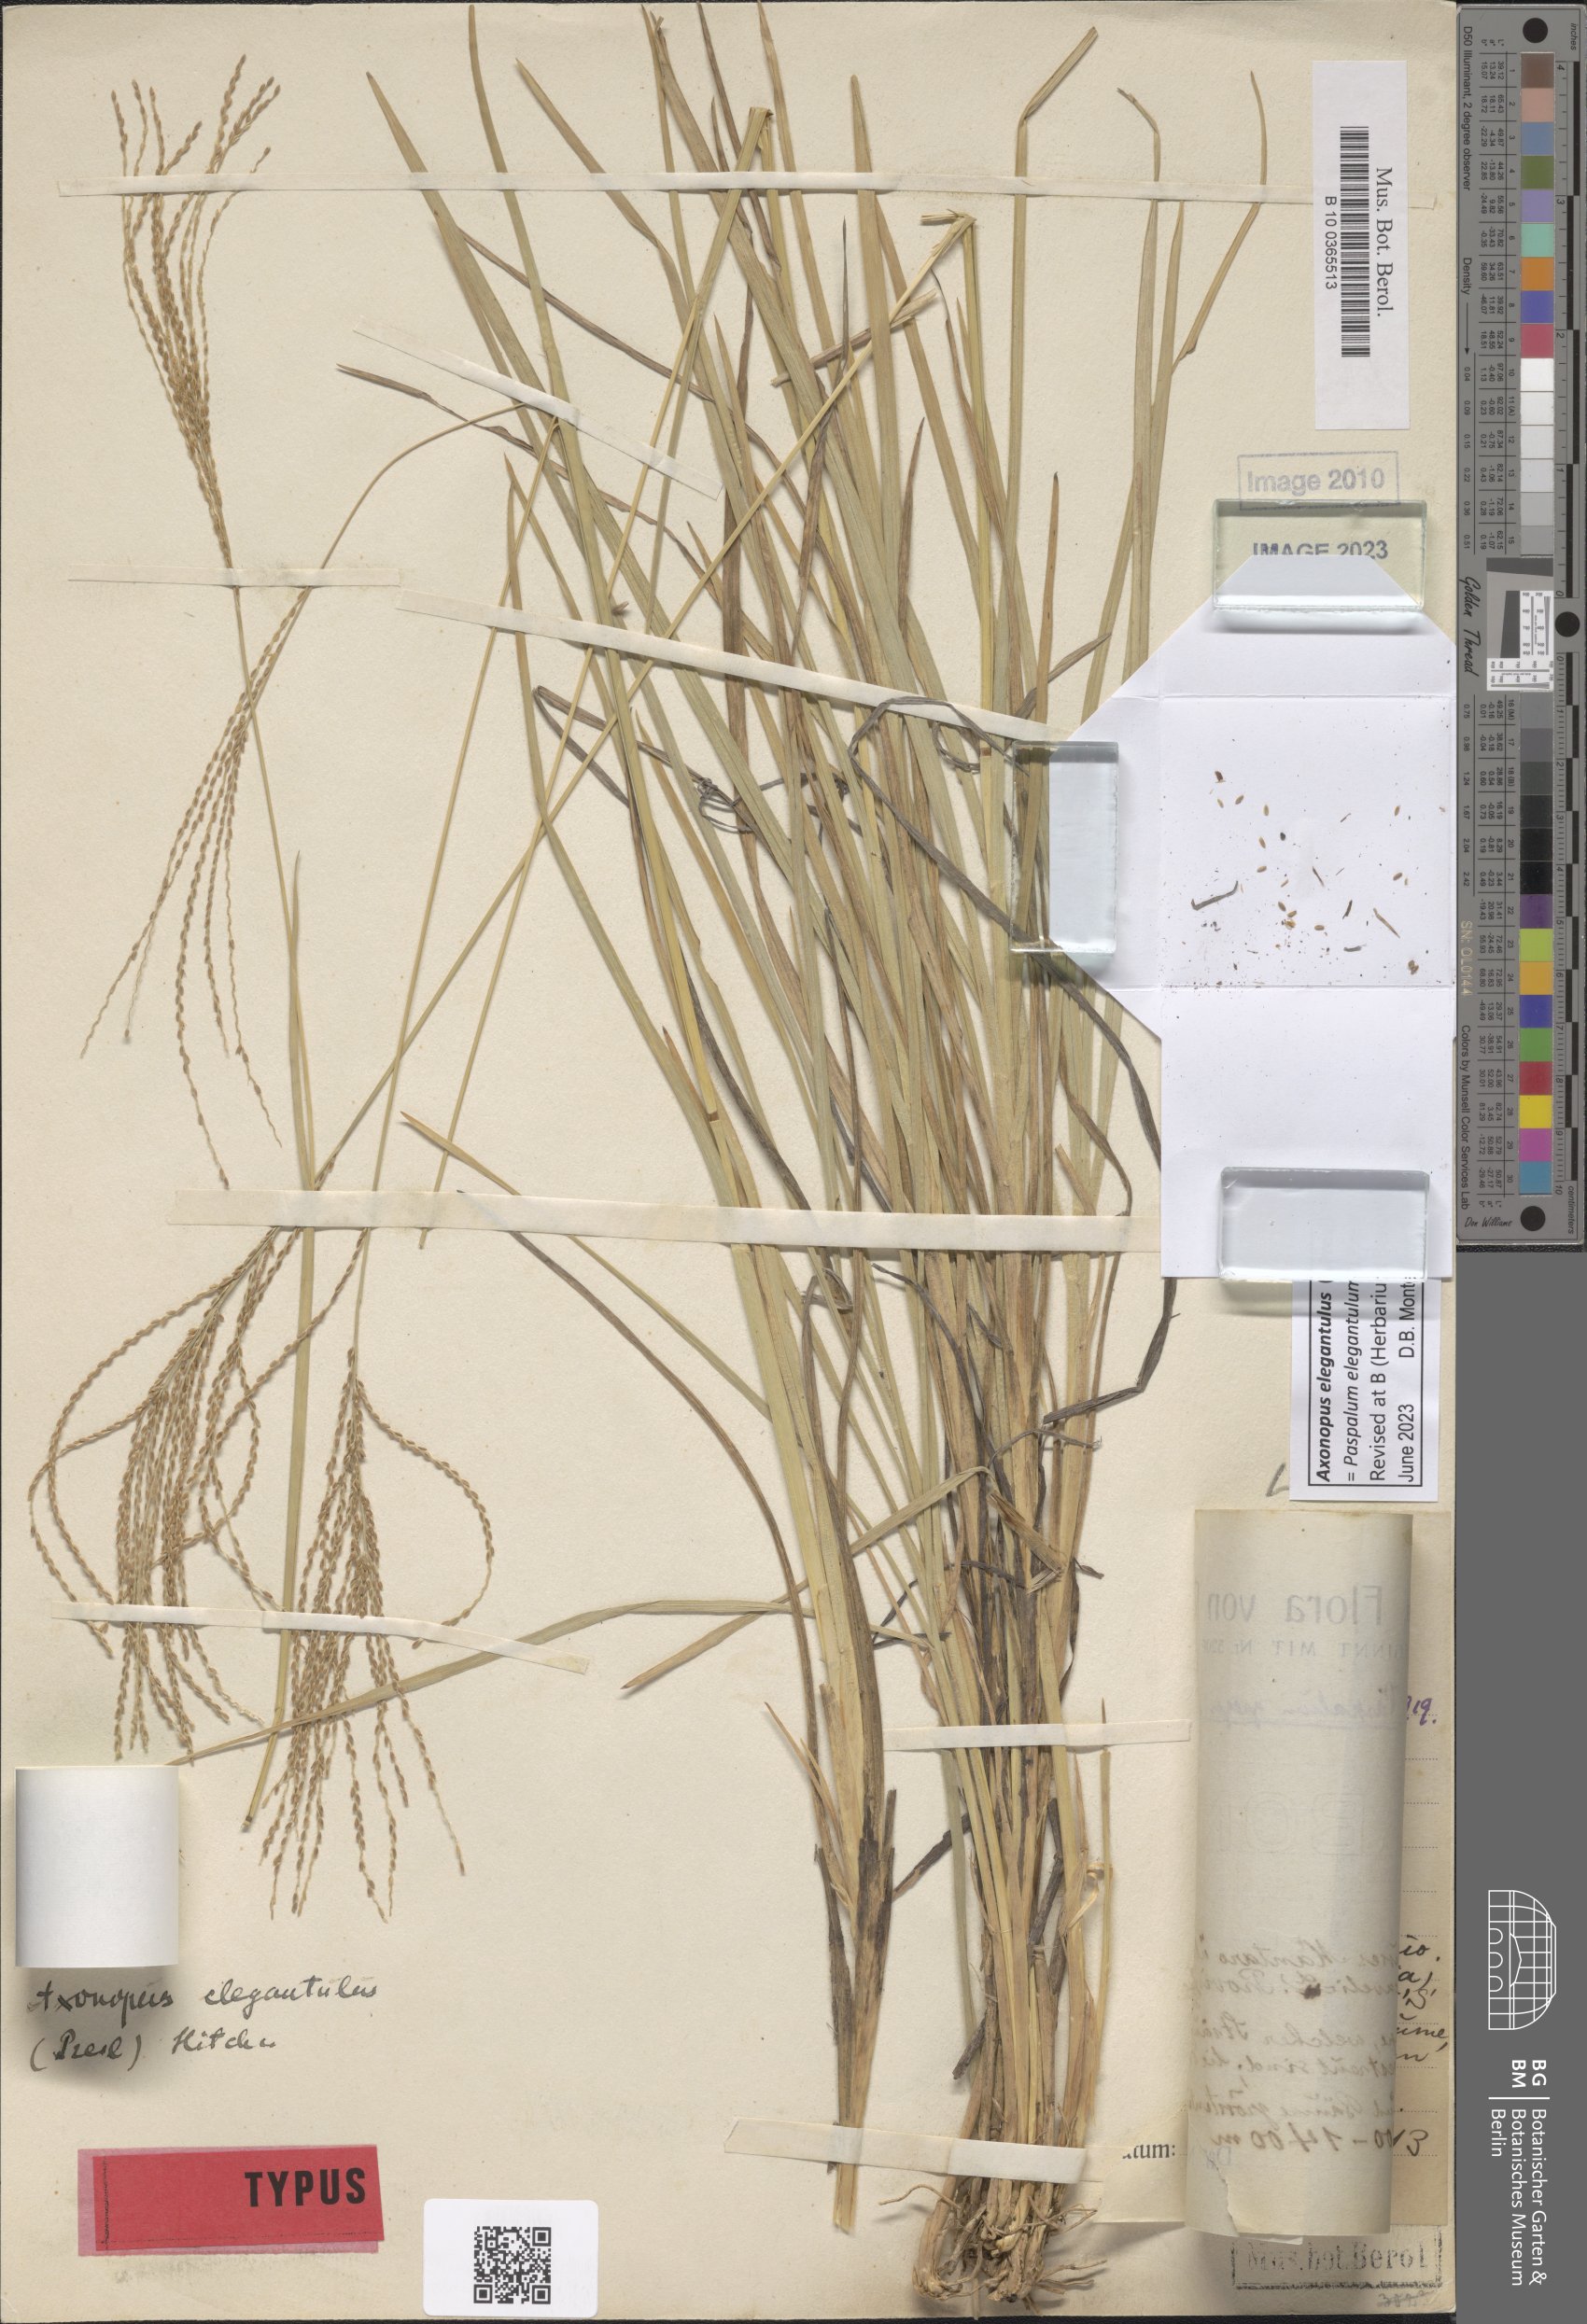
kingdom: Plantae
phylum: Tracheophyta
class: Liliopsida
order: Poales
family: Poaceae
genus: Axonopus
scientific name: Axonopus elegantulus
